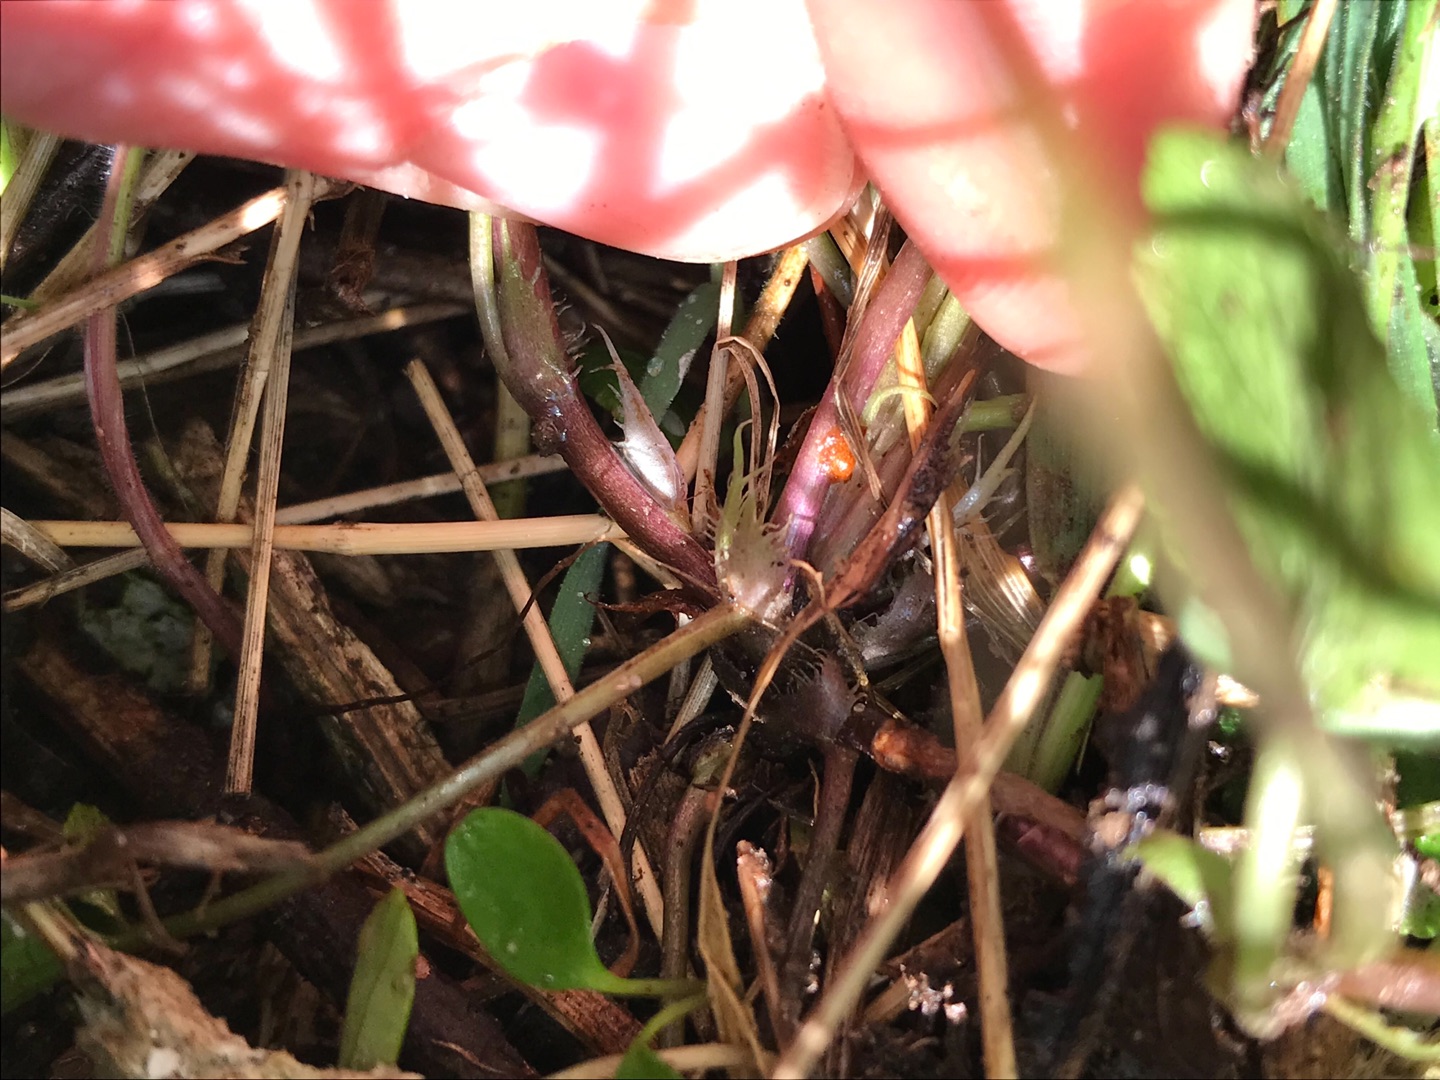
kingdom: Plantae
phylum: Tracheophyta
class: Magnoliopsida
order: Malpighiales
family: Violaceae
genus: Viola
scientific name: Viola riviniana
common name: Krat-viol
